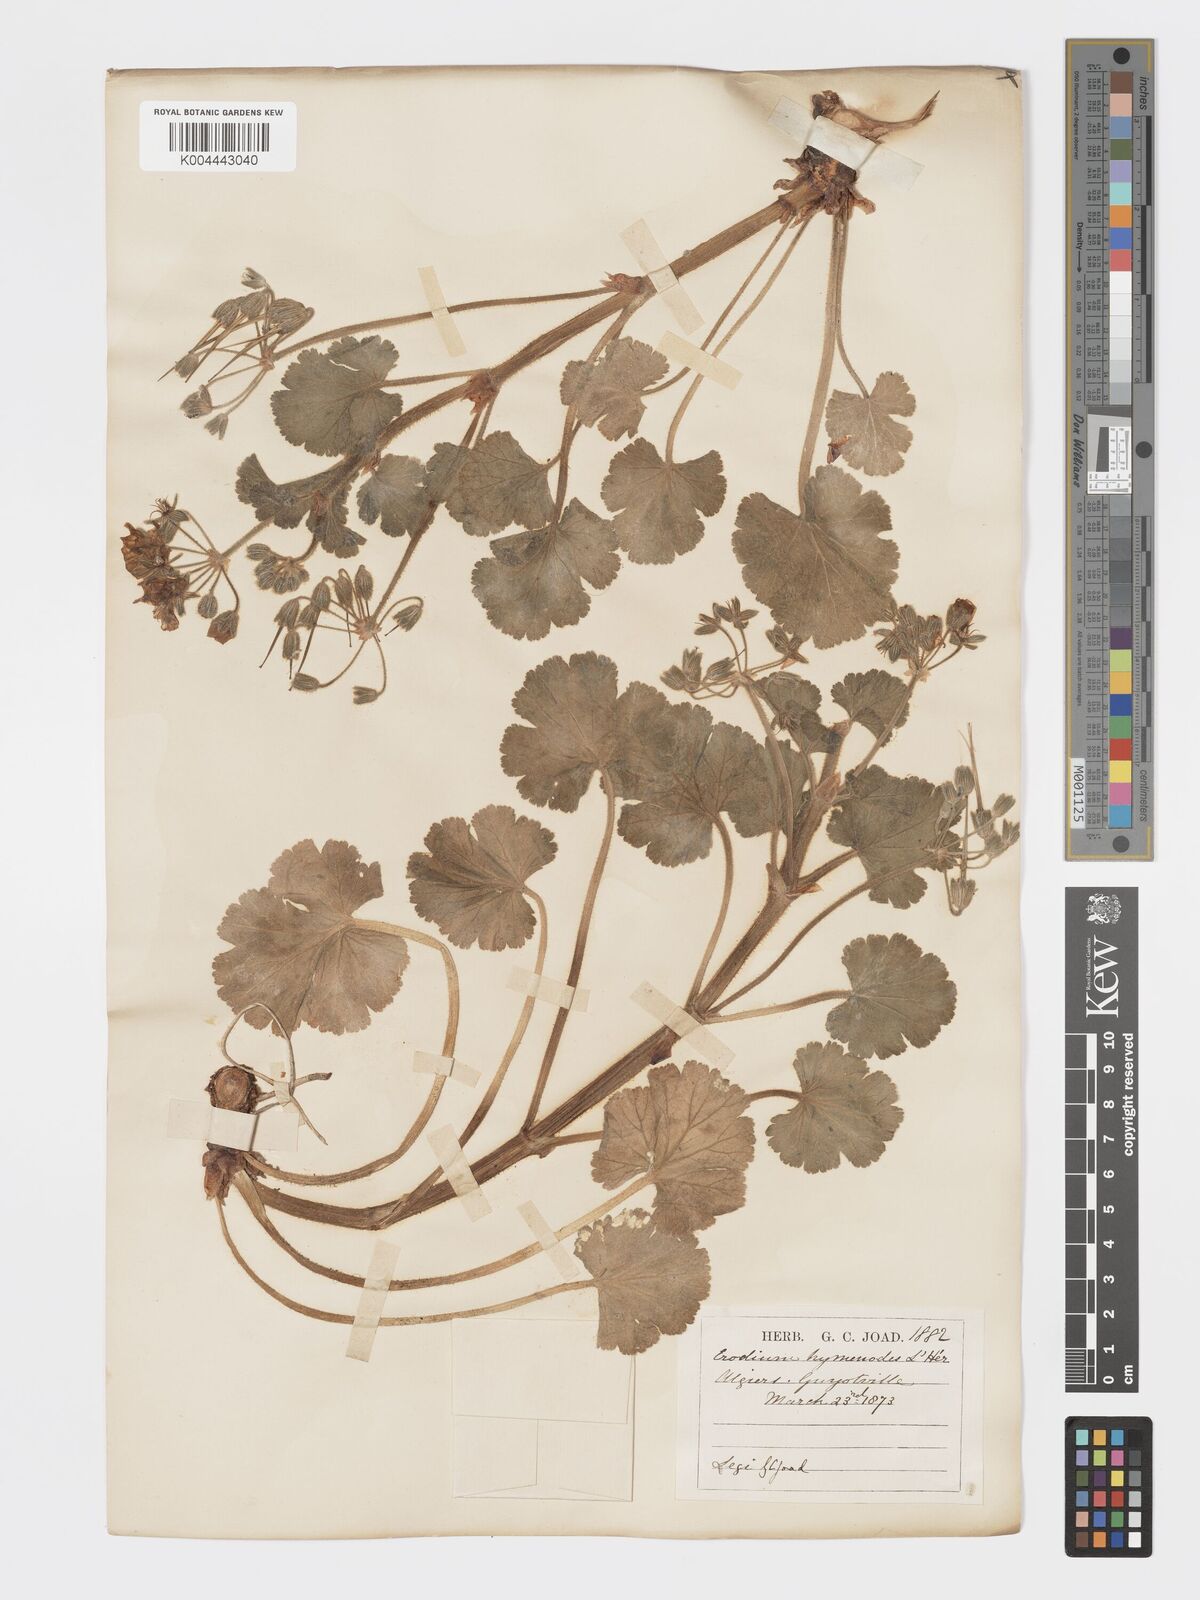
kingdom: Plantae
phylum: Tracheophyta
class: Magnoliopsida
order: Geraniales
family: Geraniaceae
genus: Erodium
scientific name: Erodium trifolium
